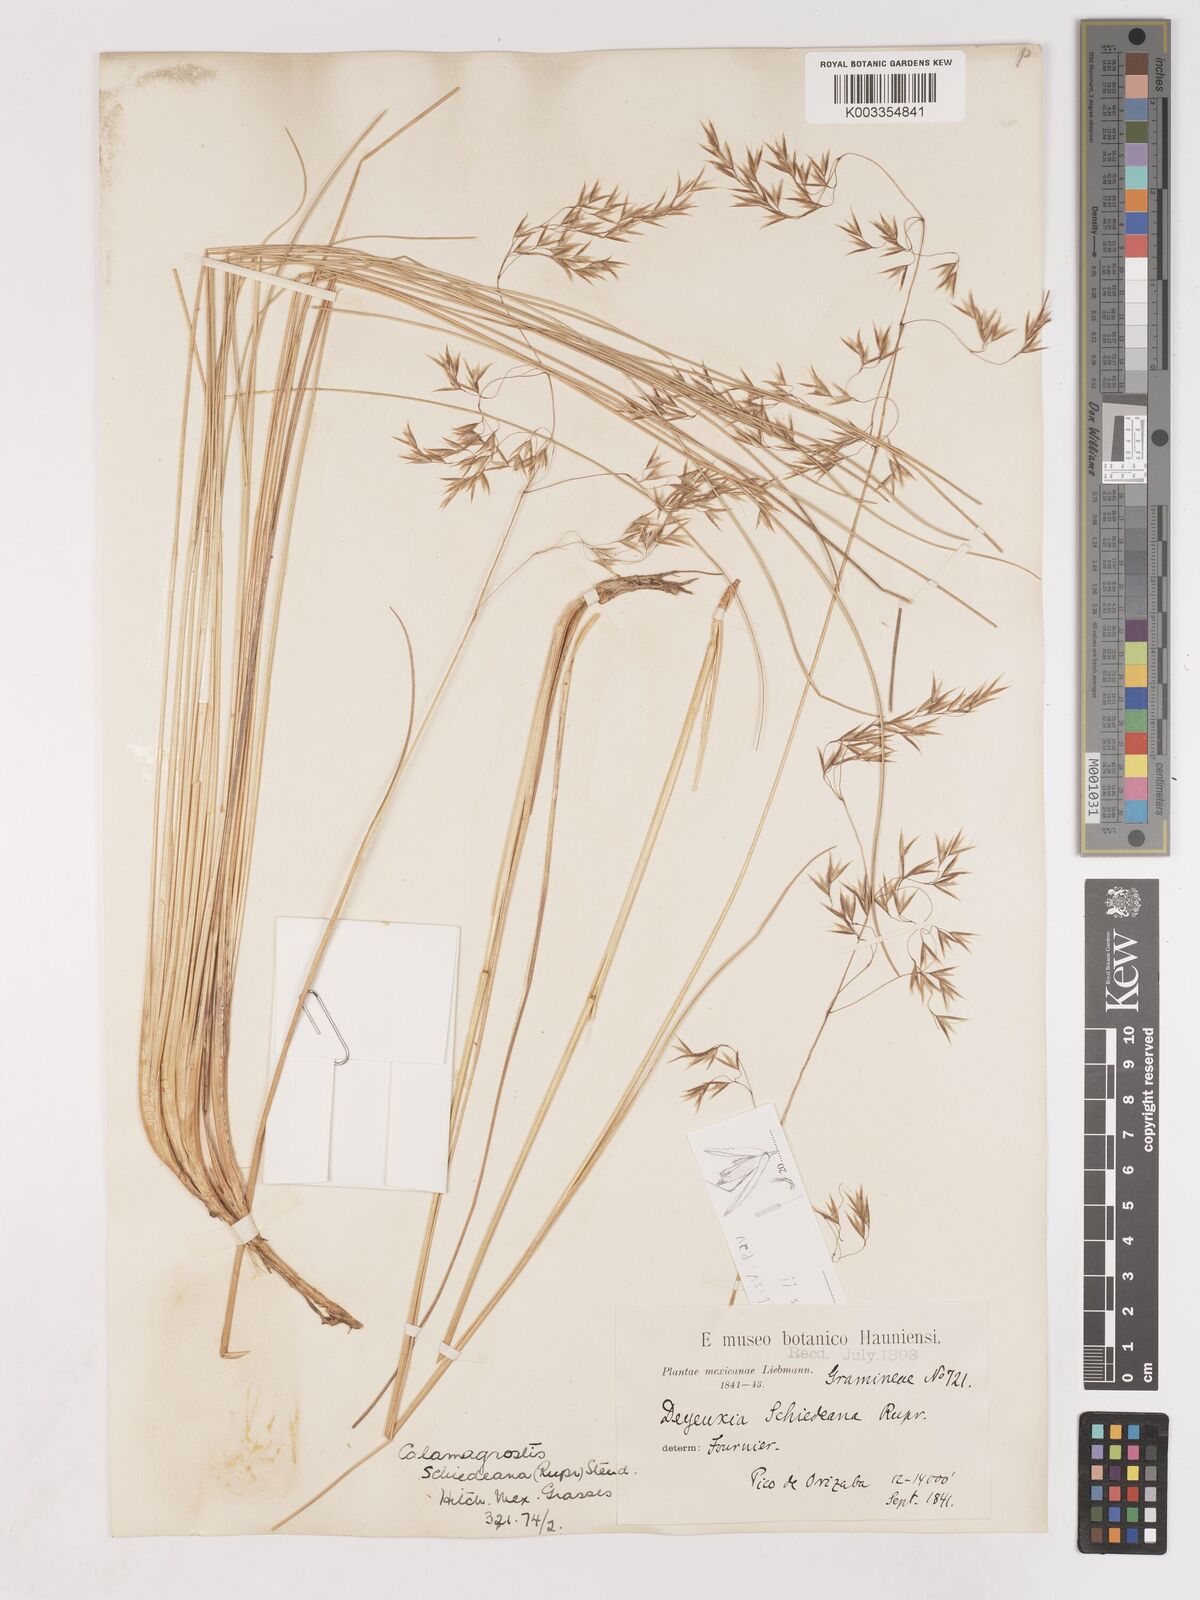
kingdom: Plantae
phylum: Tracheophyta
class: Liliopsida
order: Poales
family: Poaceae
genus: Peyritschia
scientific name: Peyritschia eriantha
